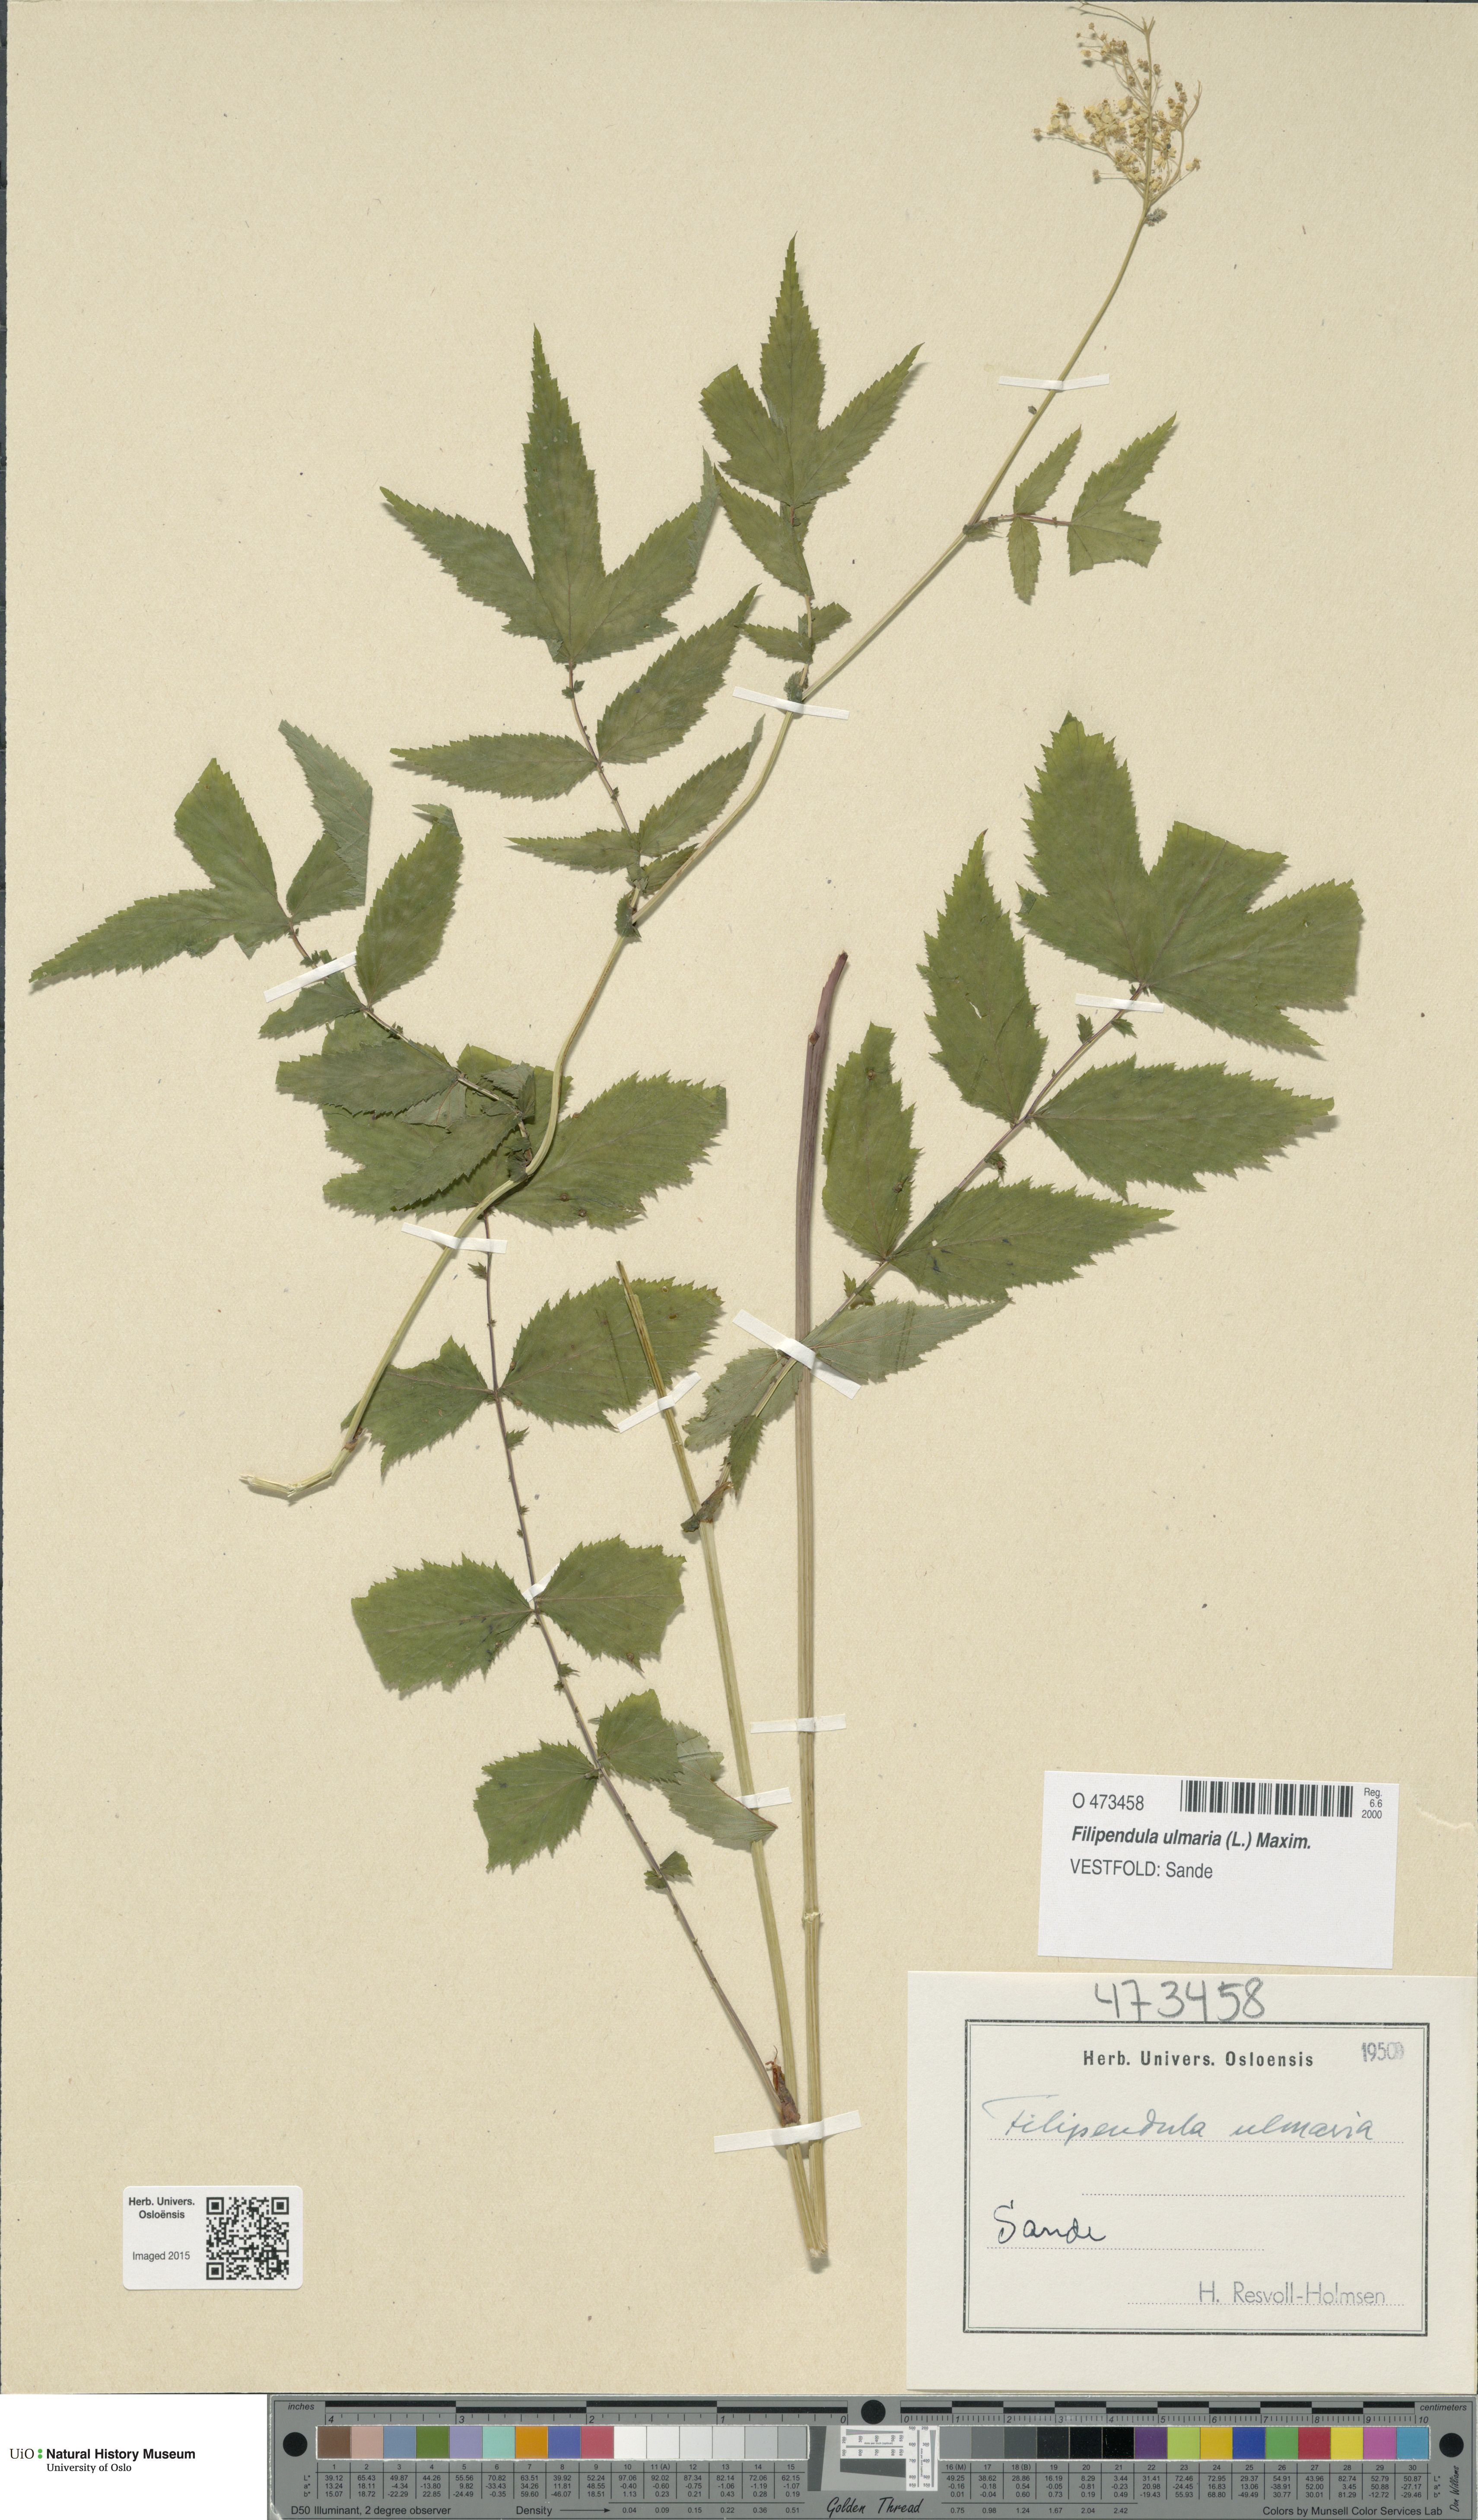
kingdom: Plantae
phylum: Tracheophyta
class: Magnoliopsida
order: Rosales
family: Rosaceae
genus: Filipendula
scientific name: Filipendula ulmaria
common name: Meadowsweet
